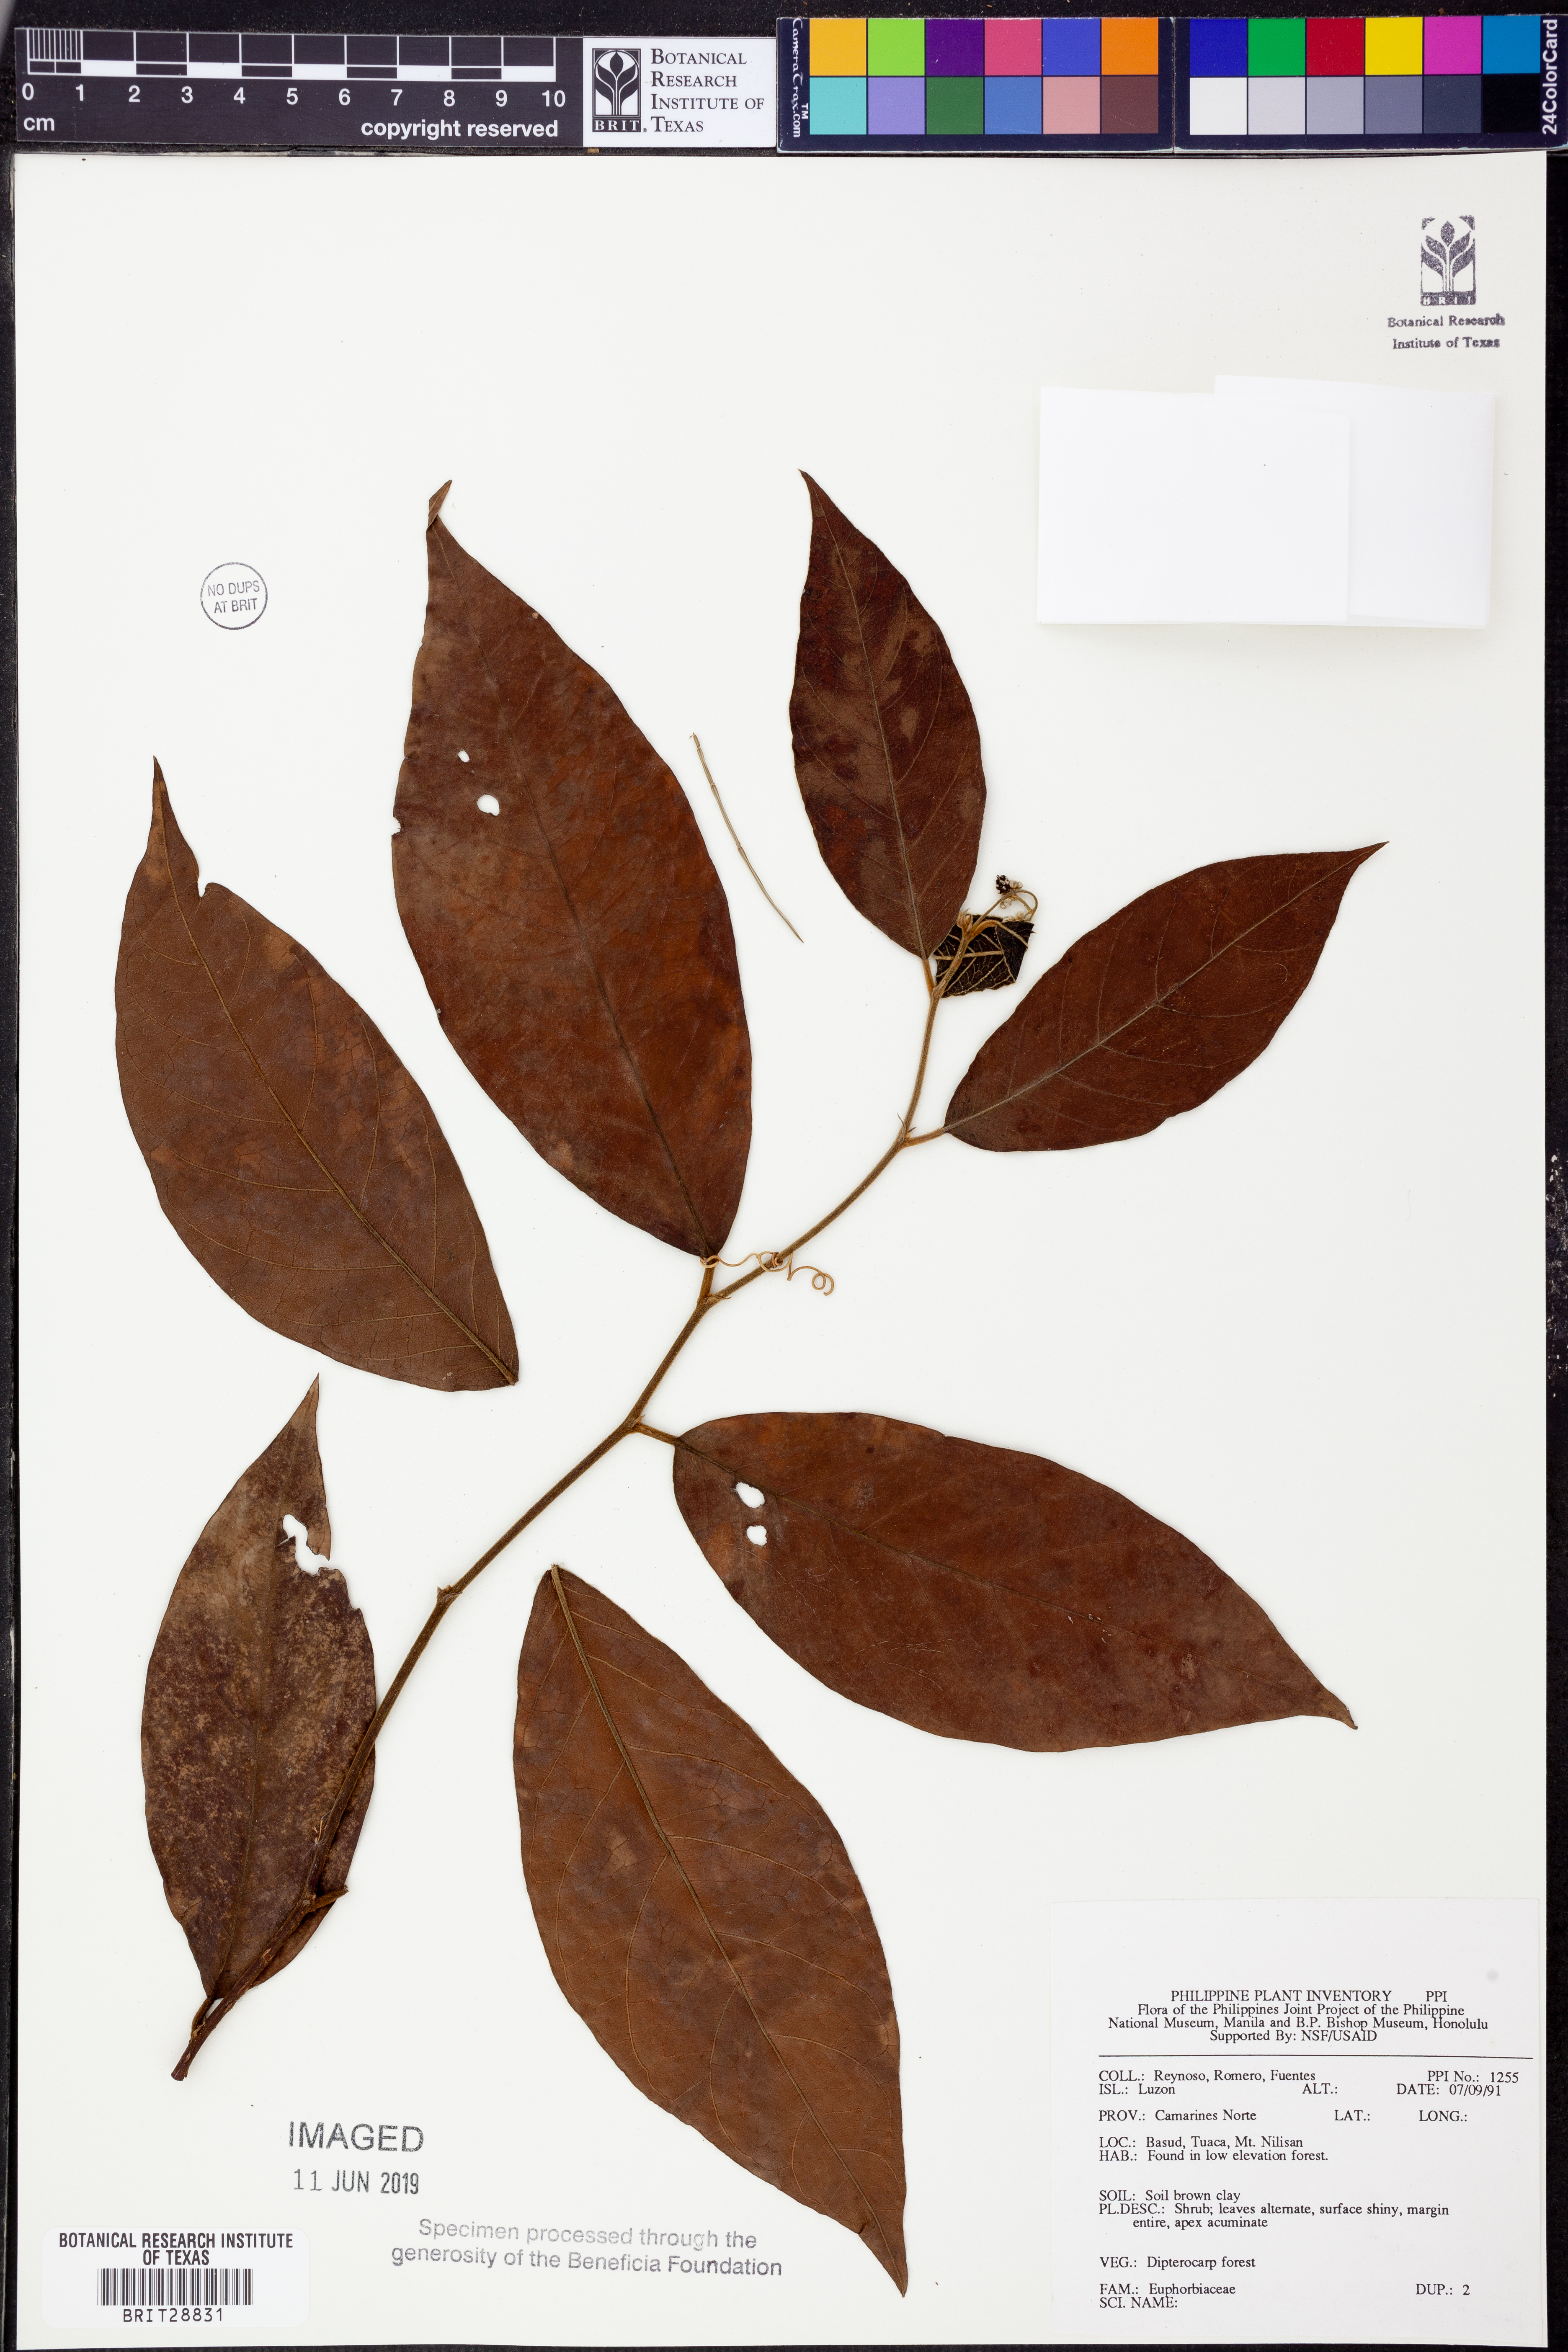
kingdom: Plantae
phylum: Tracheophyta
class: Magnoliopsida
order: Malpighiales
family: Euphorbiaceae
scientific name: Euphorbiaceae
